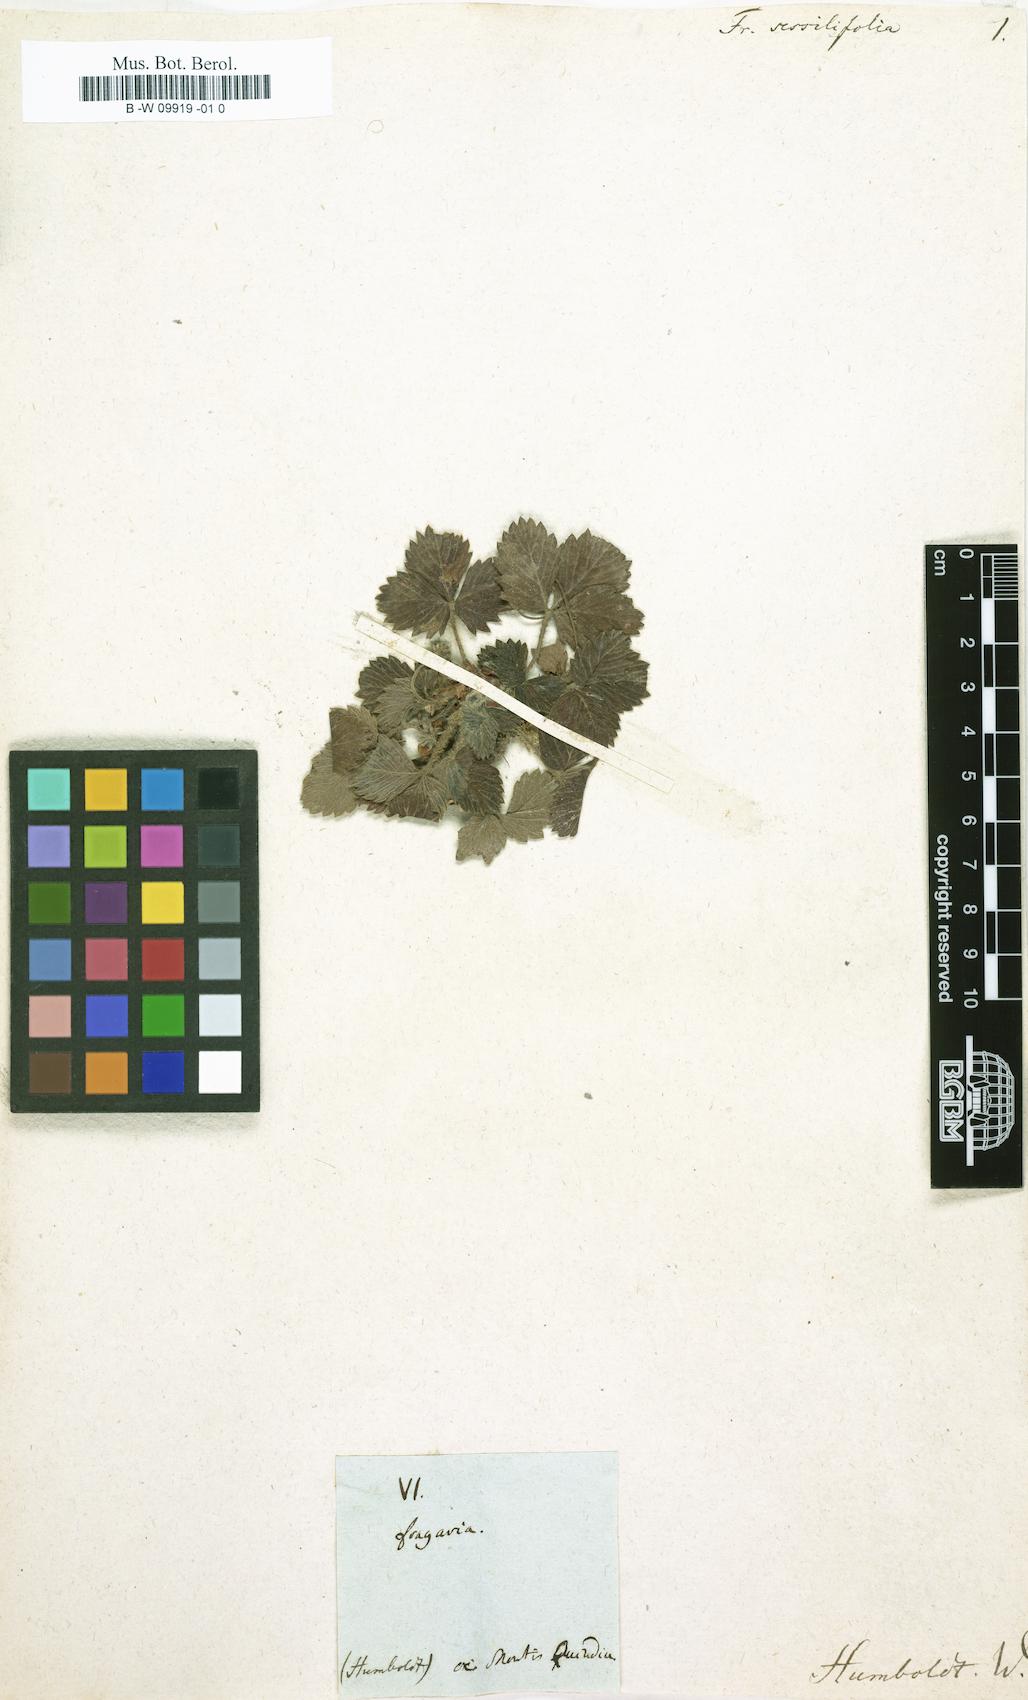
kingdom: Plantae
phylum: Tracheophyta
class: Magnoliopsida
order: Rosales
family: Rosaceae
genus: Fragaria
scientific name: Fragaria
